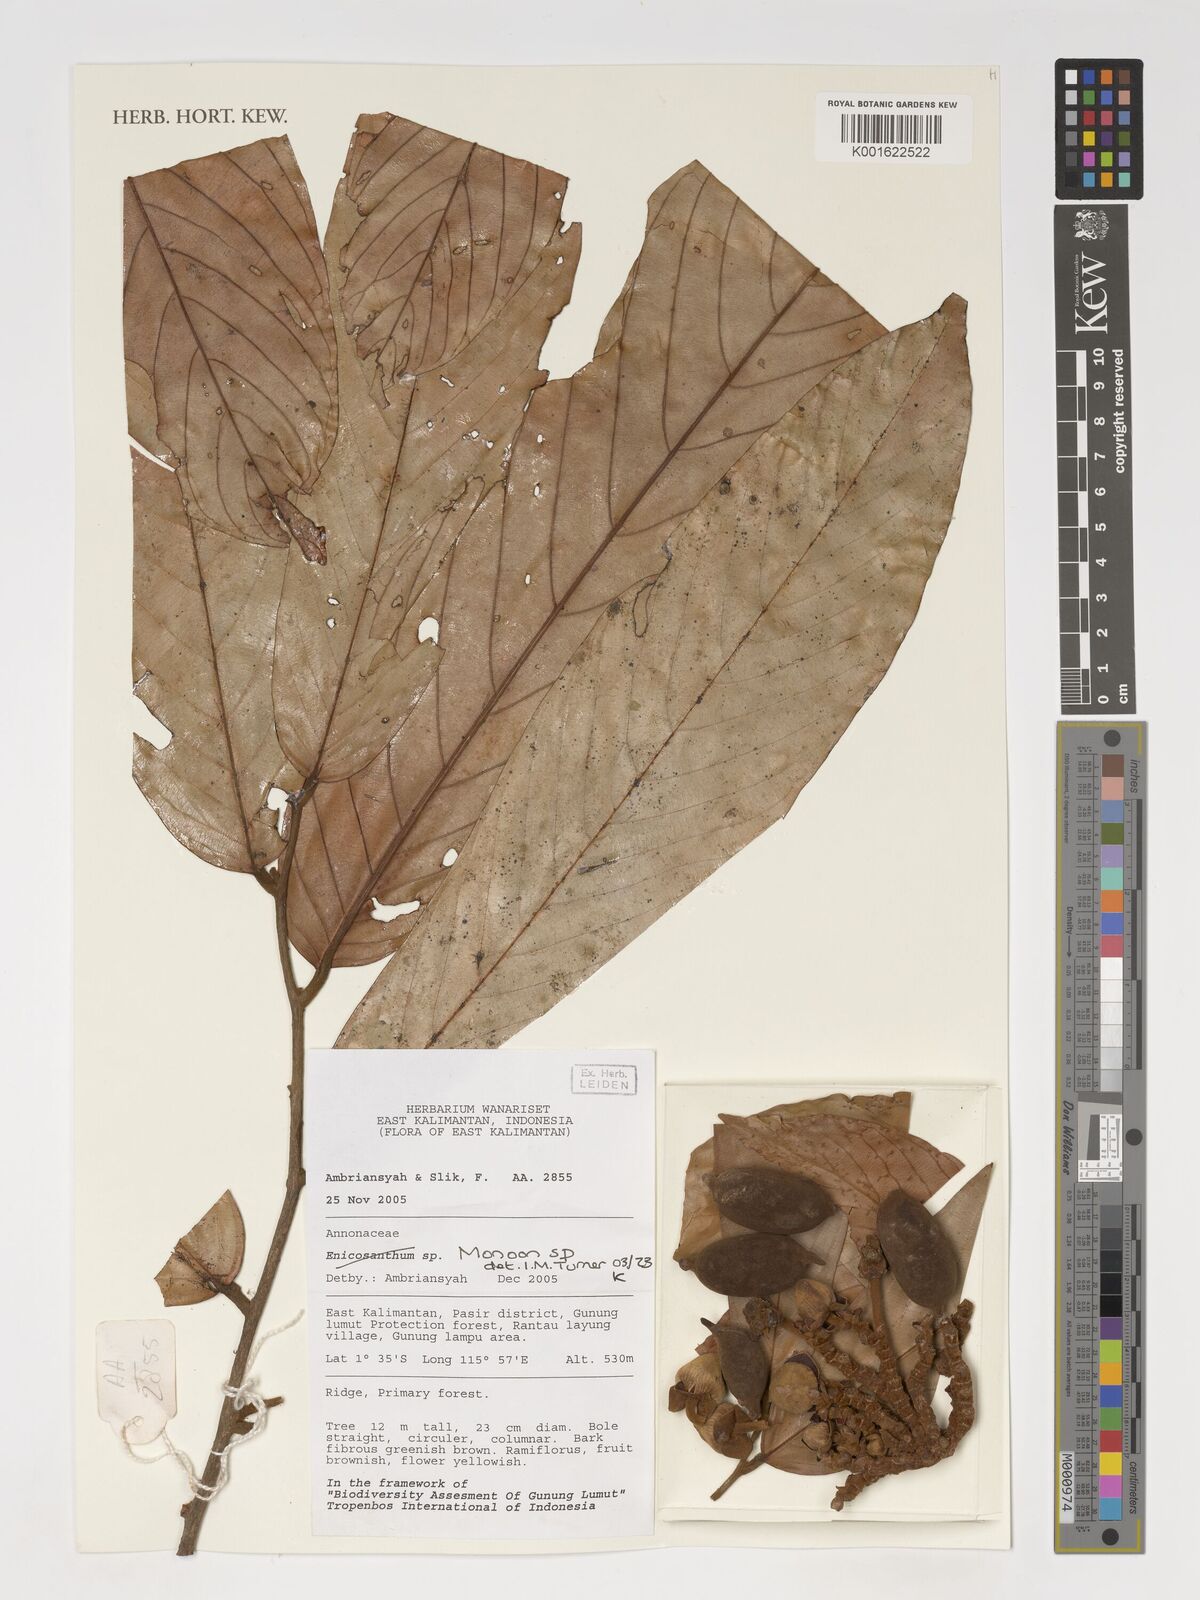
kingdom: Plantae
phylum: Tracheophyta
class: Magnoliopsida
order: Magnoliales
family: Annonaceae
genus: Monoon
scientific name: Monoon
